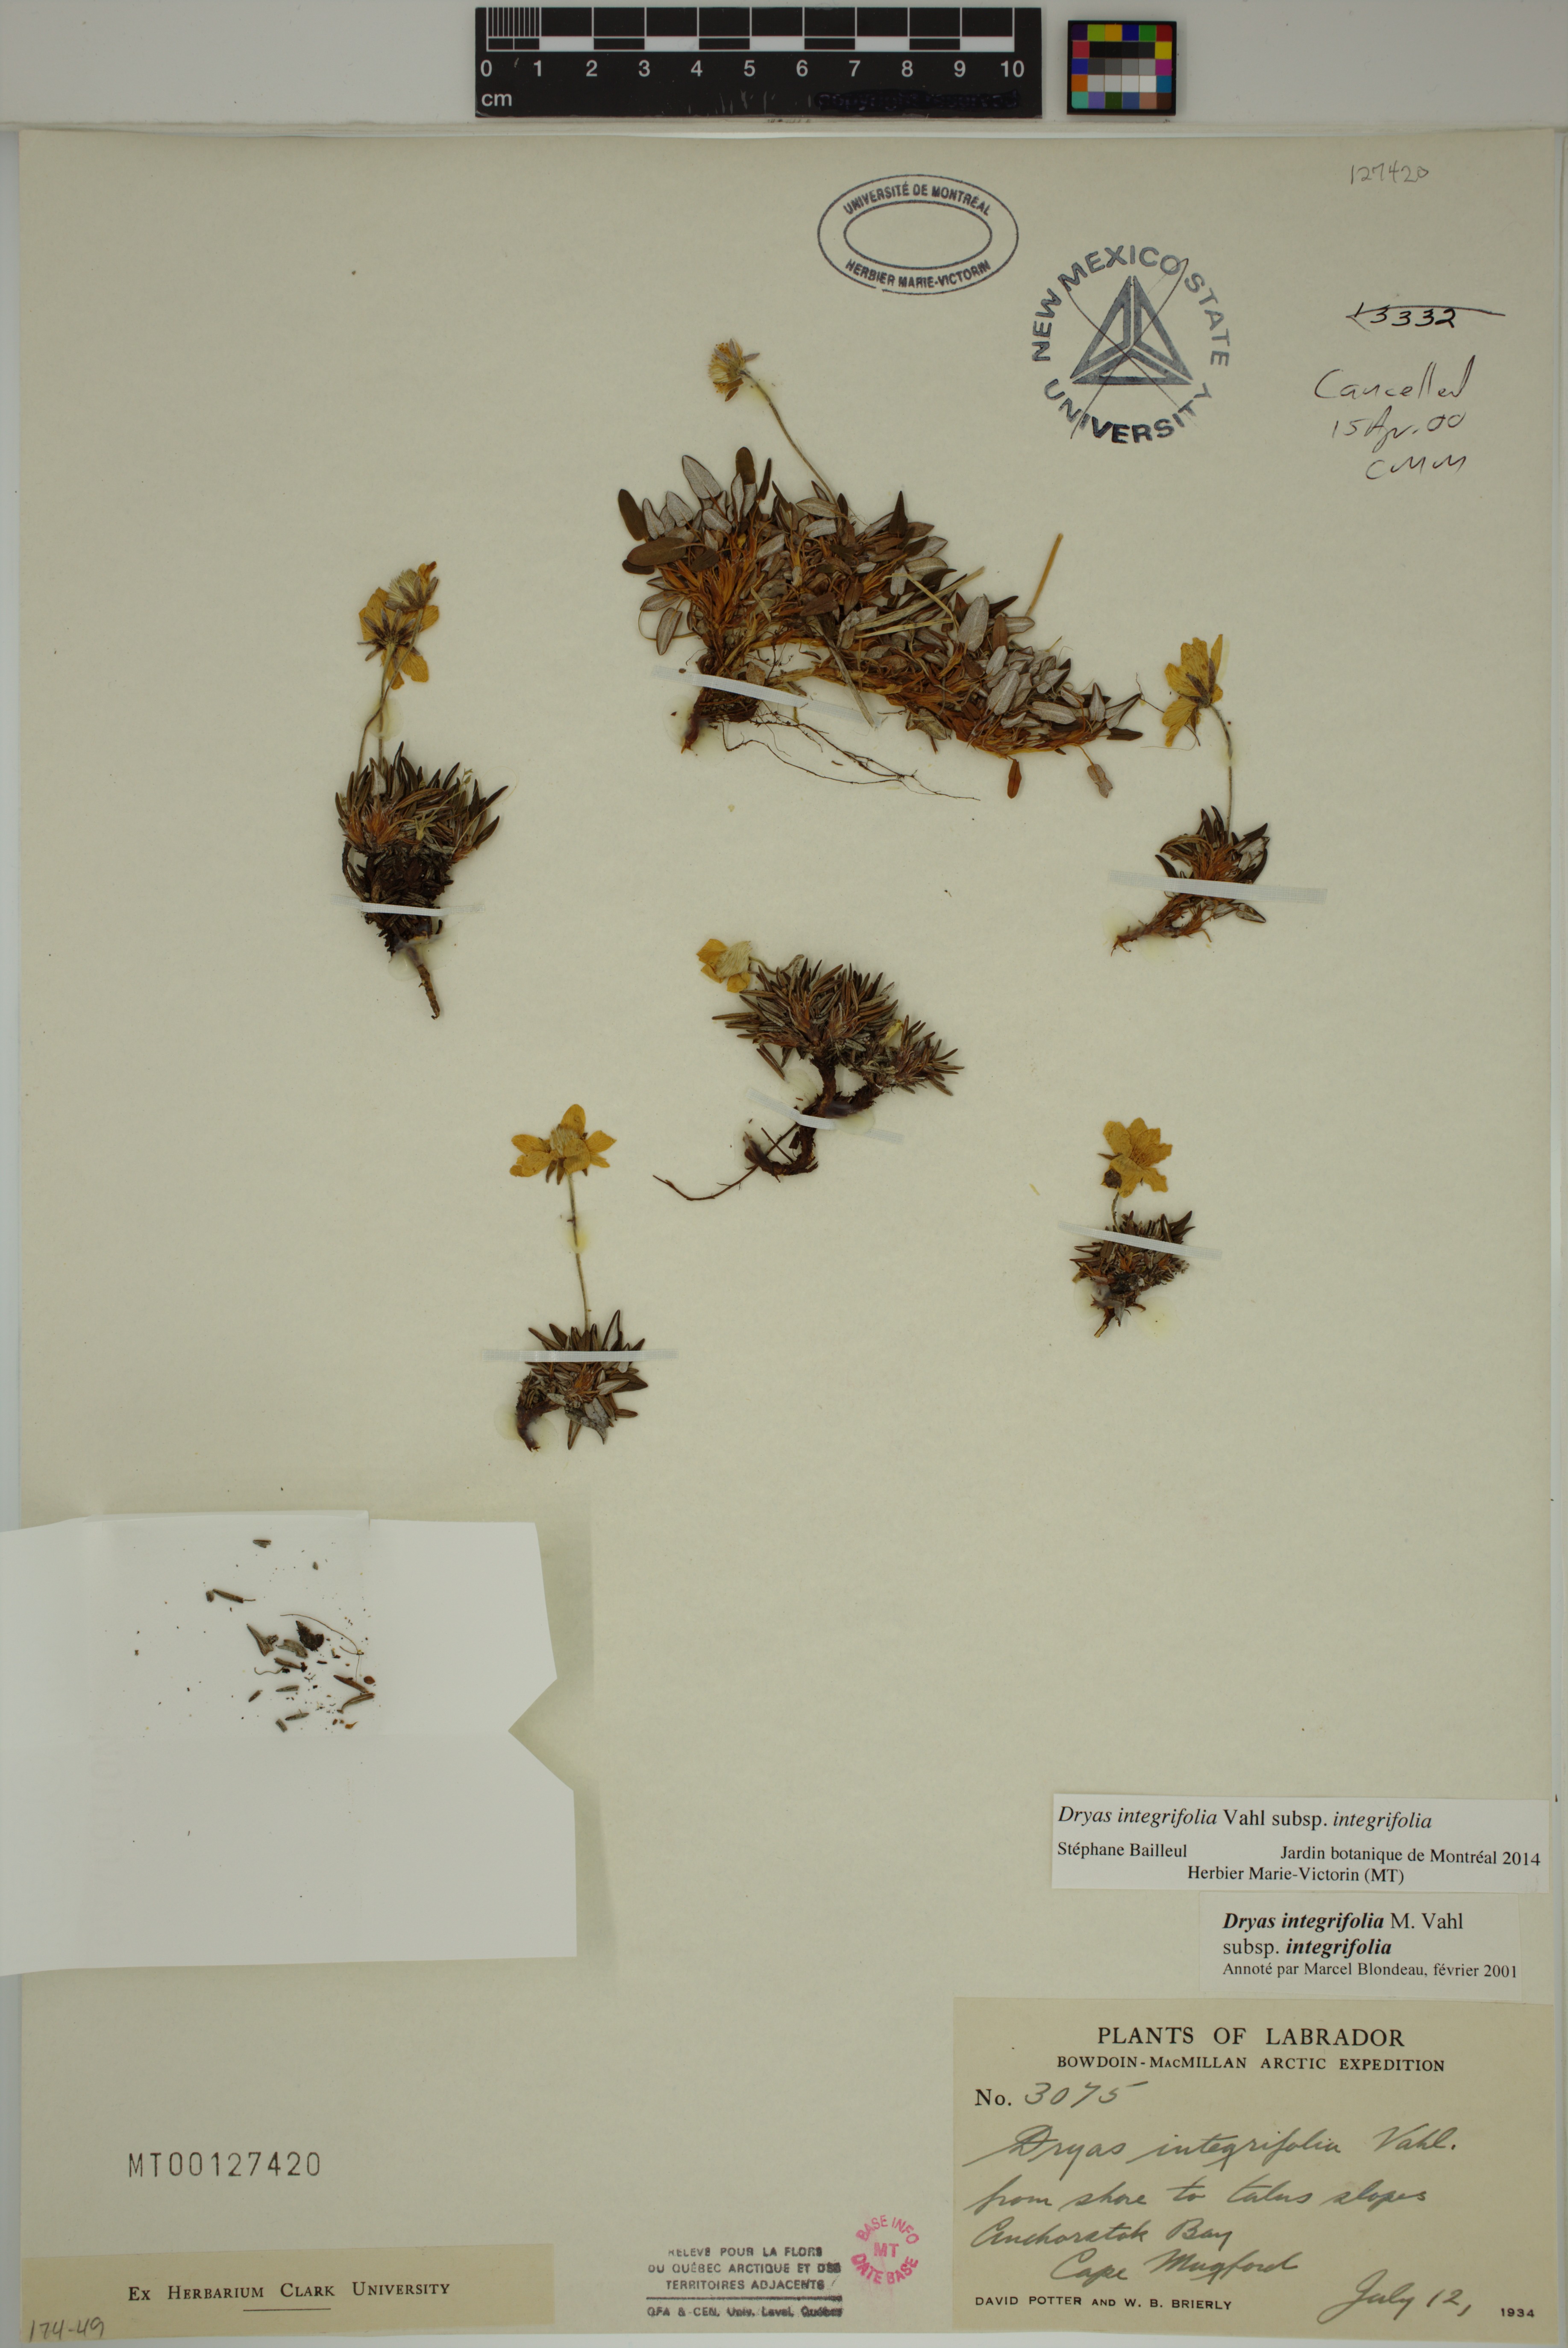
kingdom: Plantae
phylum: Tracheophyta
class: Magnoliopsida
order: Rosales
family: Rosaceae
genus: Dryas
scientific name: Dryas integrifolia
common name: Entire-leaved mountain avens
